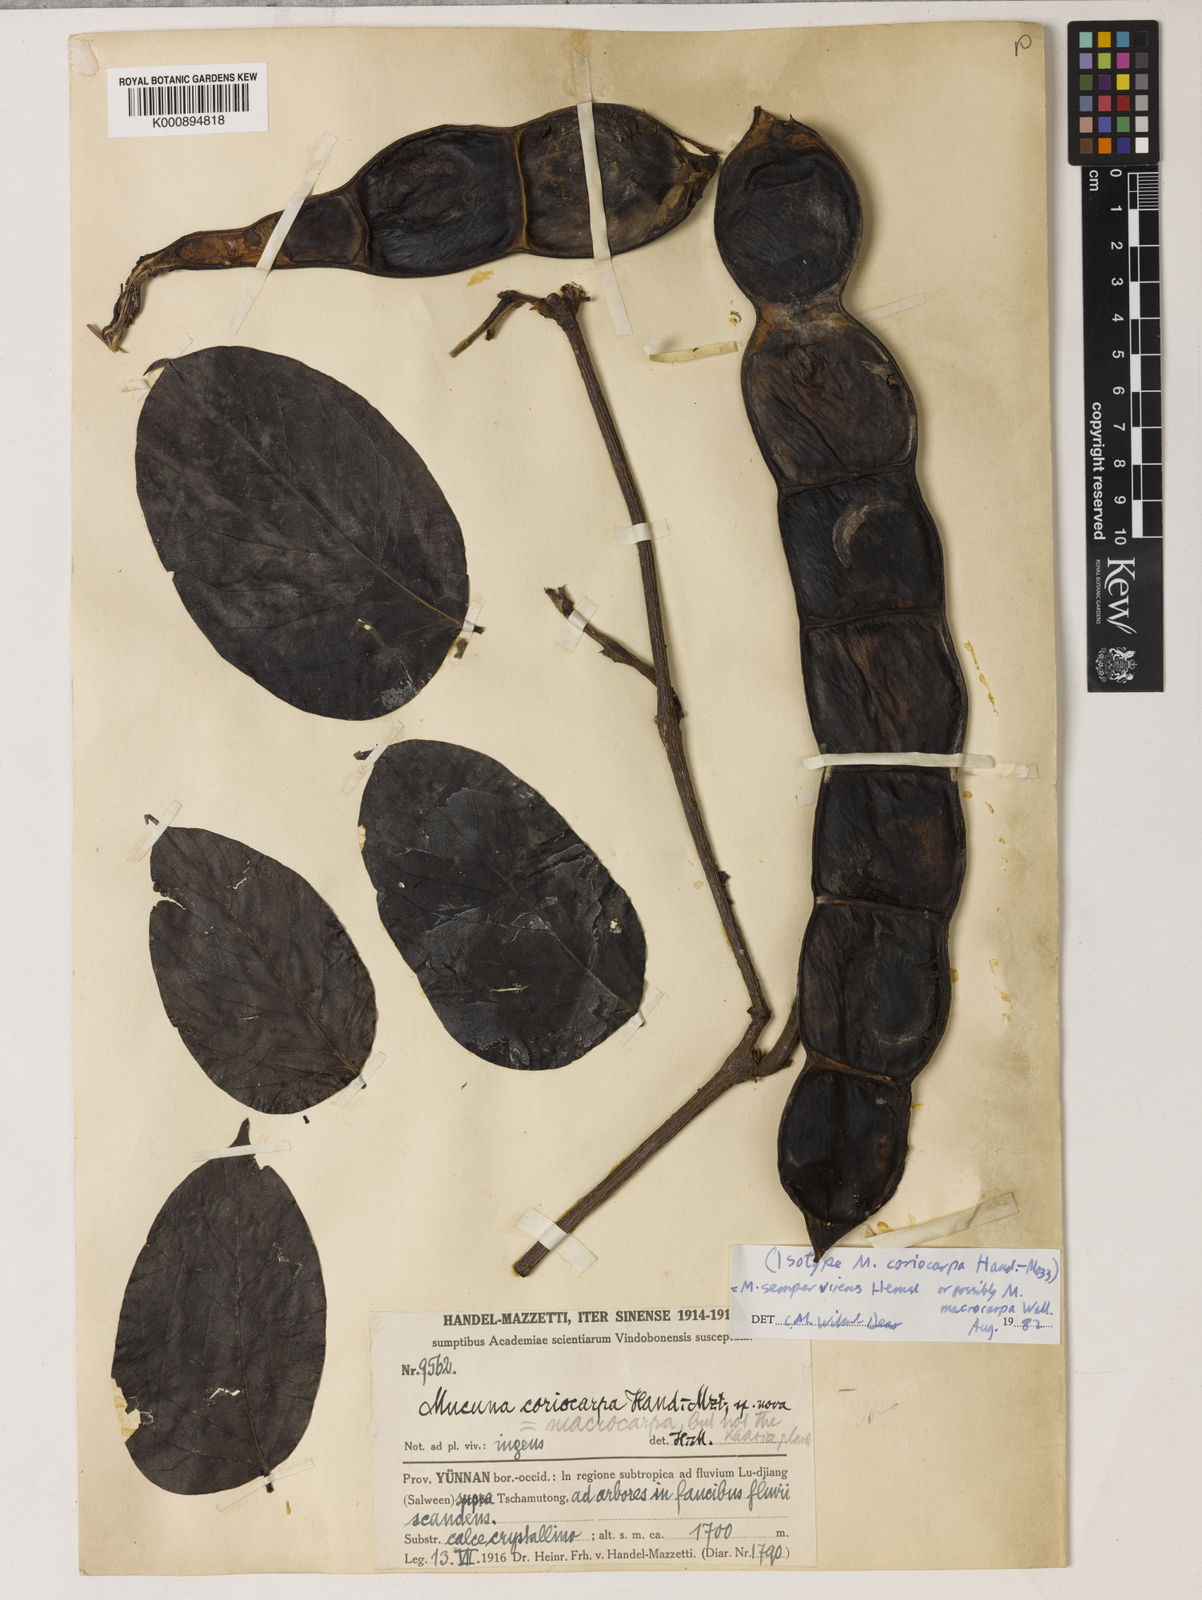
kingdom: Plantae
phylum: Tracheophyta
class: Magnoliopsida
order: Fabales
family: Fabaceae
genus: Mucuna
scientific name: Mucuna macrocarpa
